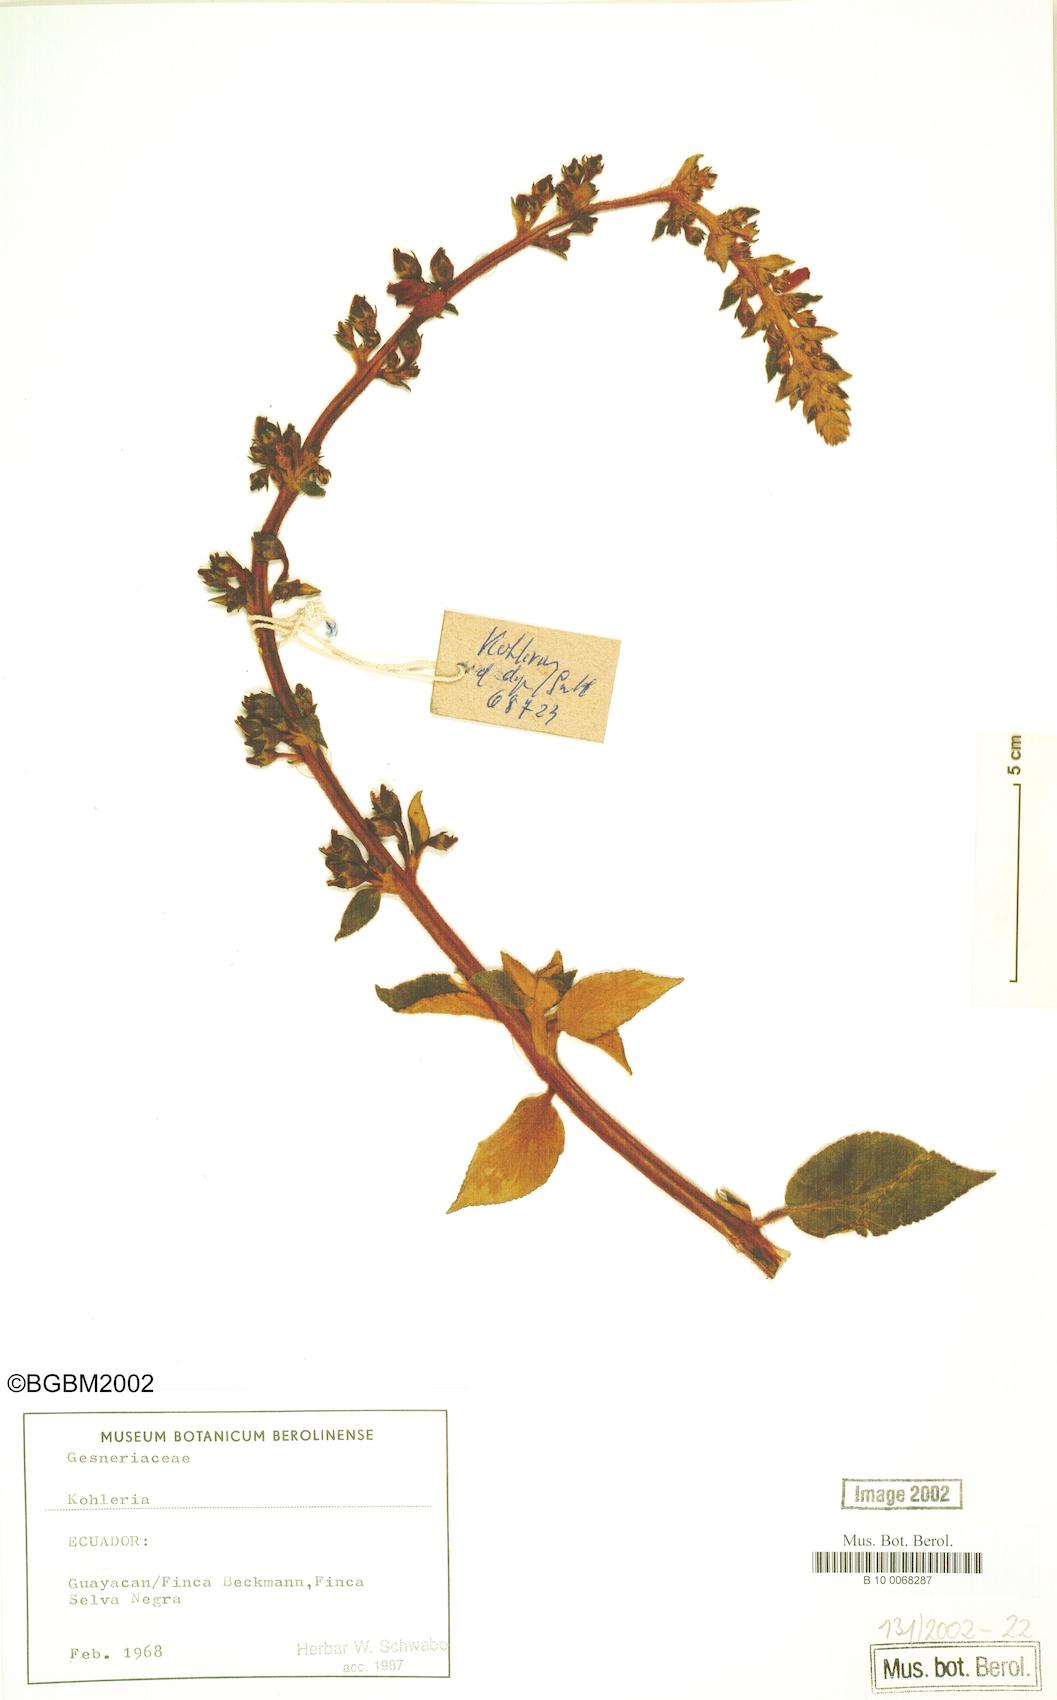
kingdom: Plantae
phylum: Tracheophyta
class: Magnoliopsida
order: Lamiales
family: Gesneriaceae
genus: Kohleria
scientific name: Kohleria
